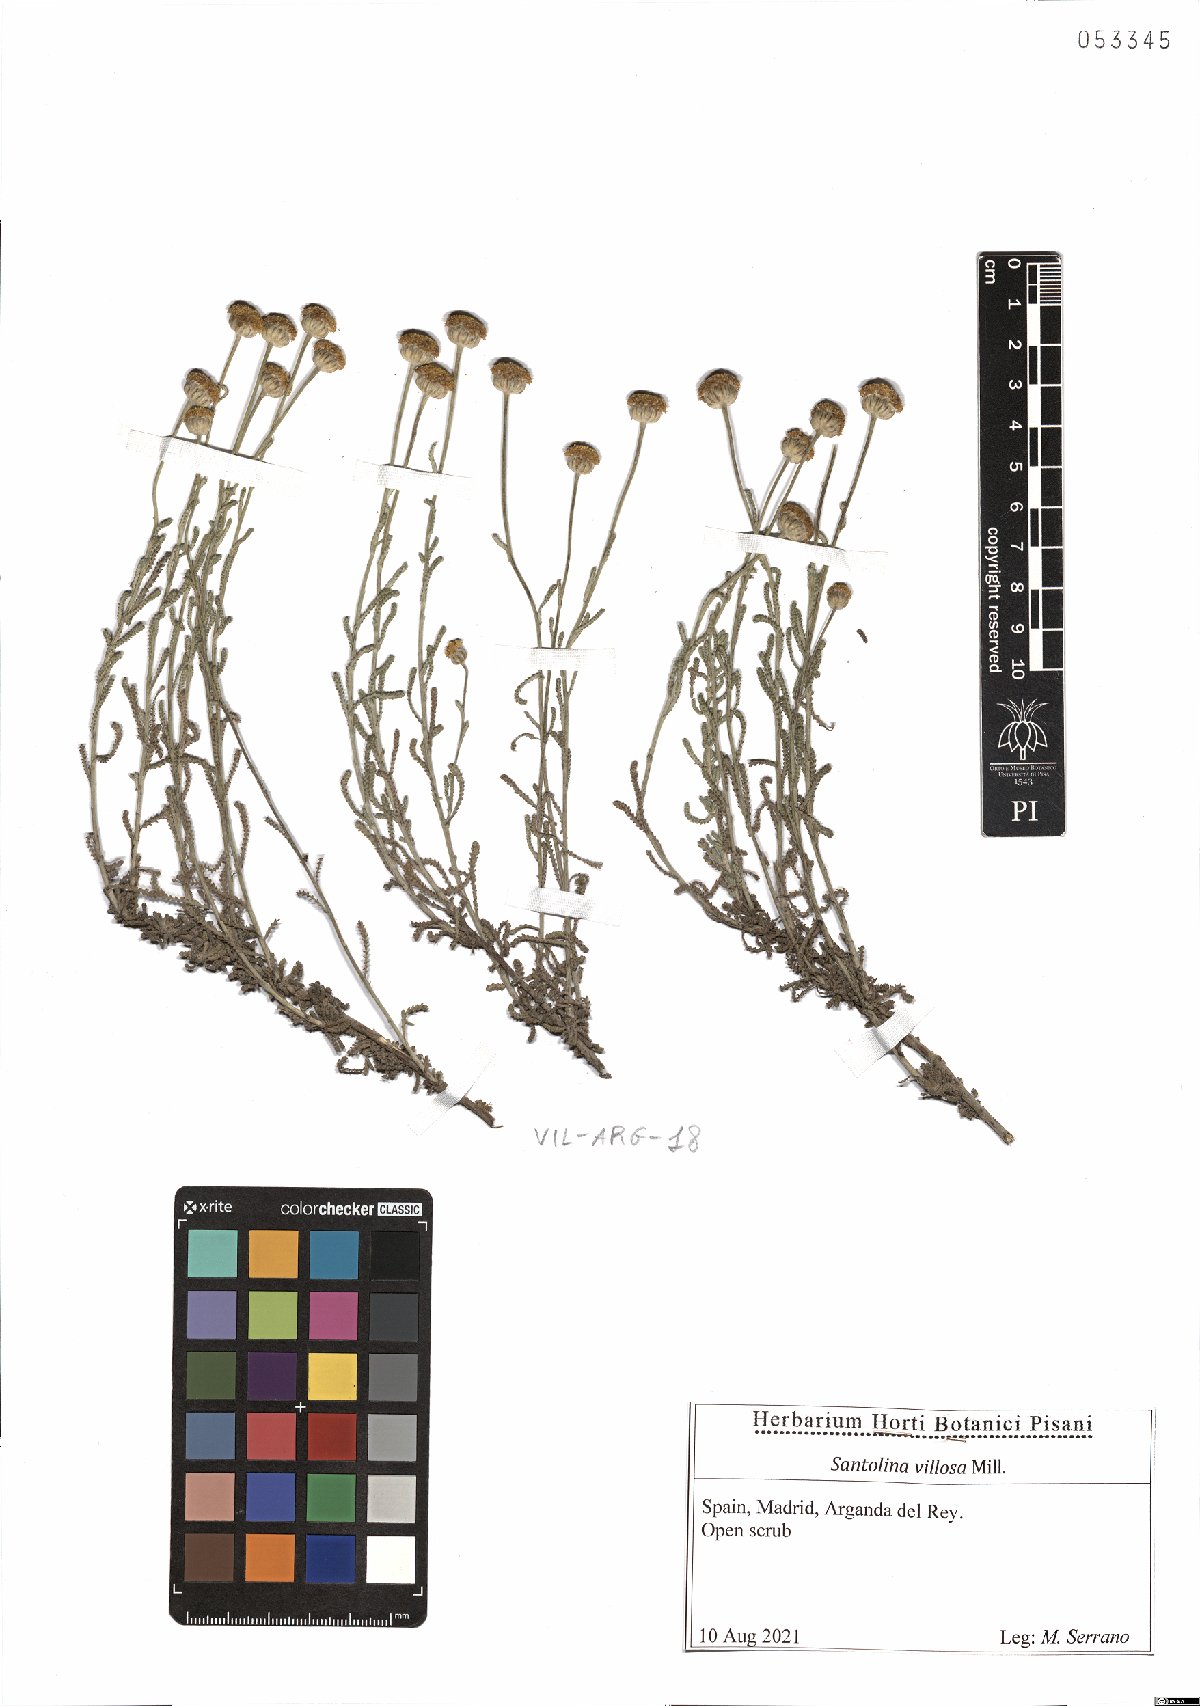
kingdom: Plantae
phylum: Tracheophyta
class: Magnoliopsida
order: Asterales
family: Asteraceae
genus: Santolina
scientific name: Santolina chamaecyparissus
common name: Lavender-cotton
